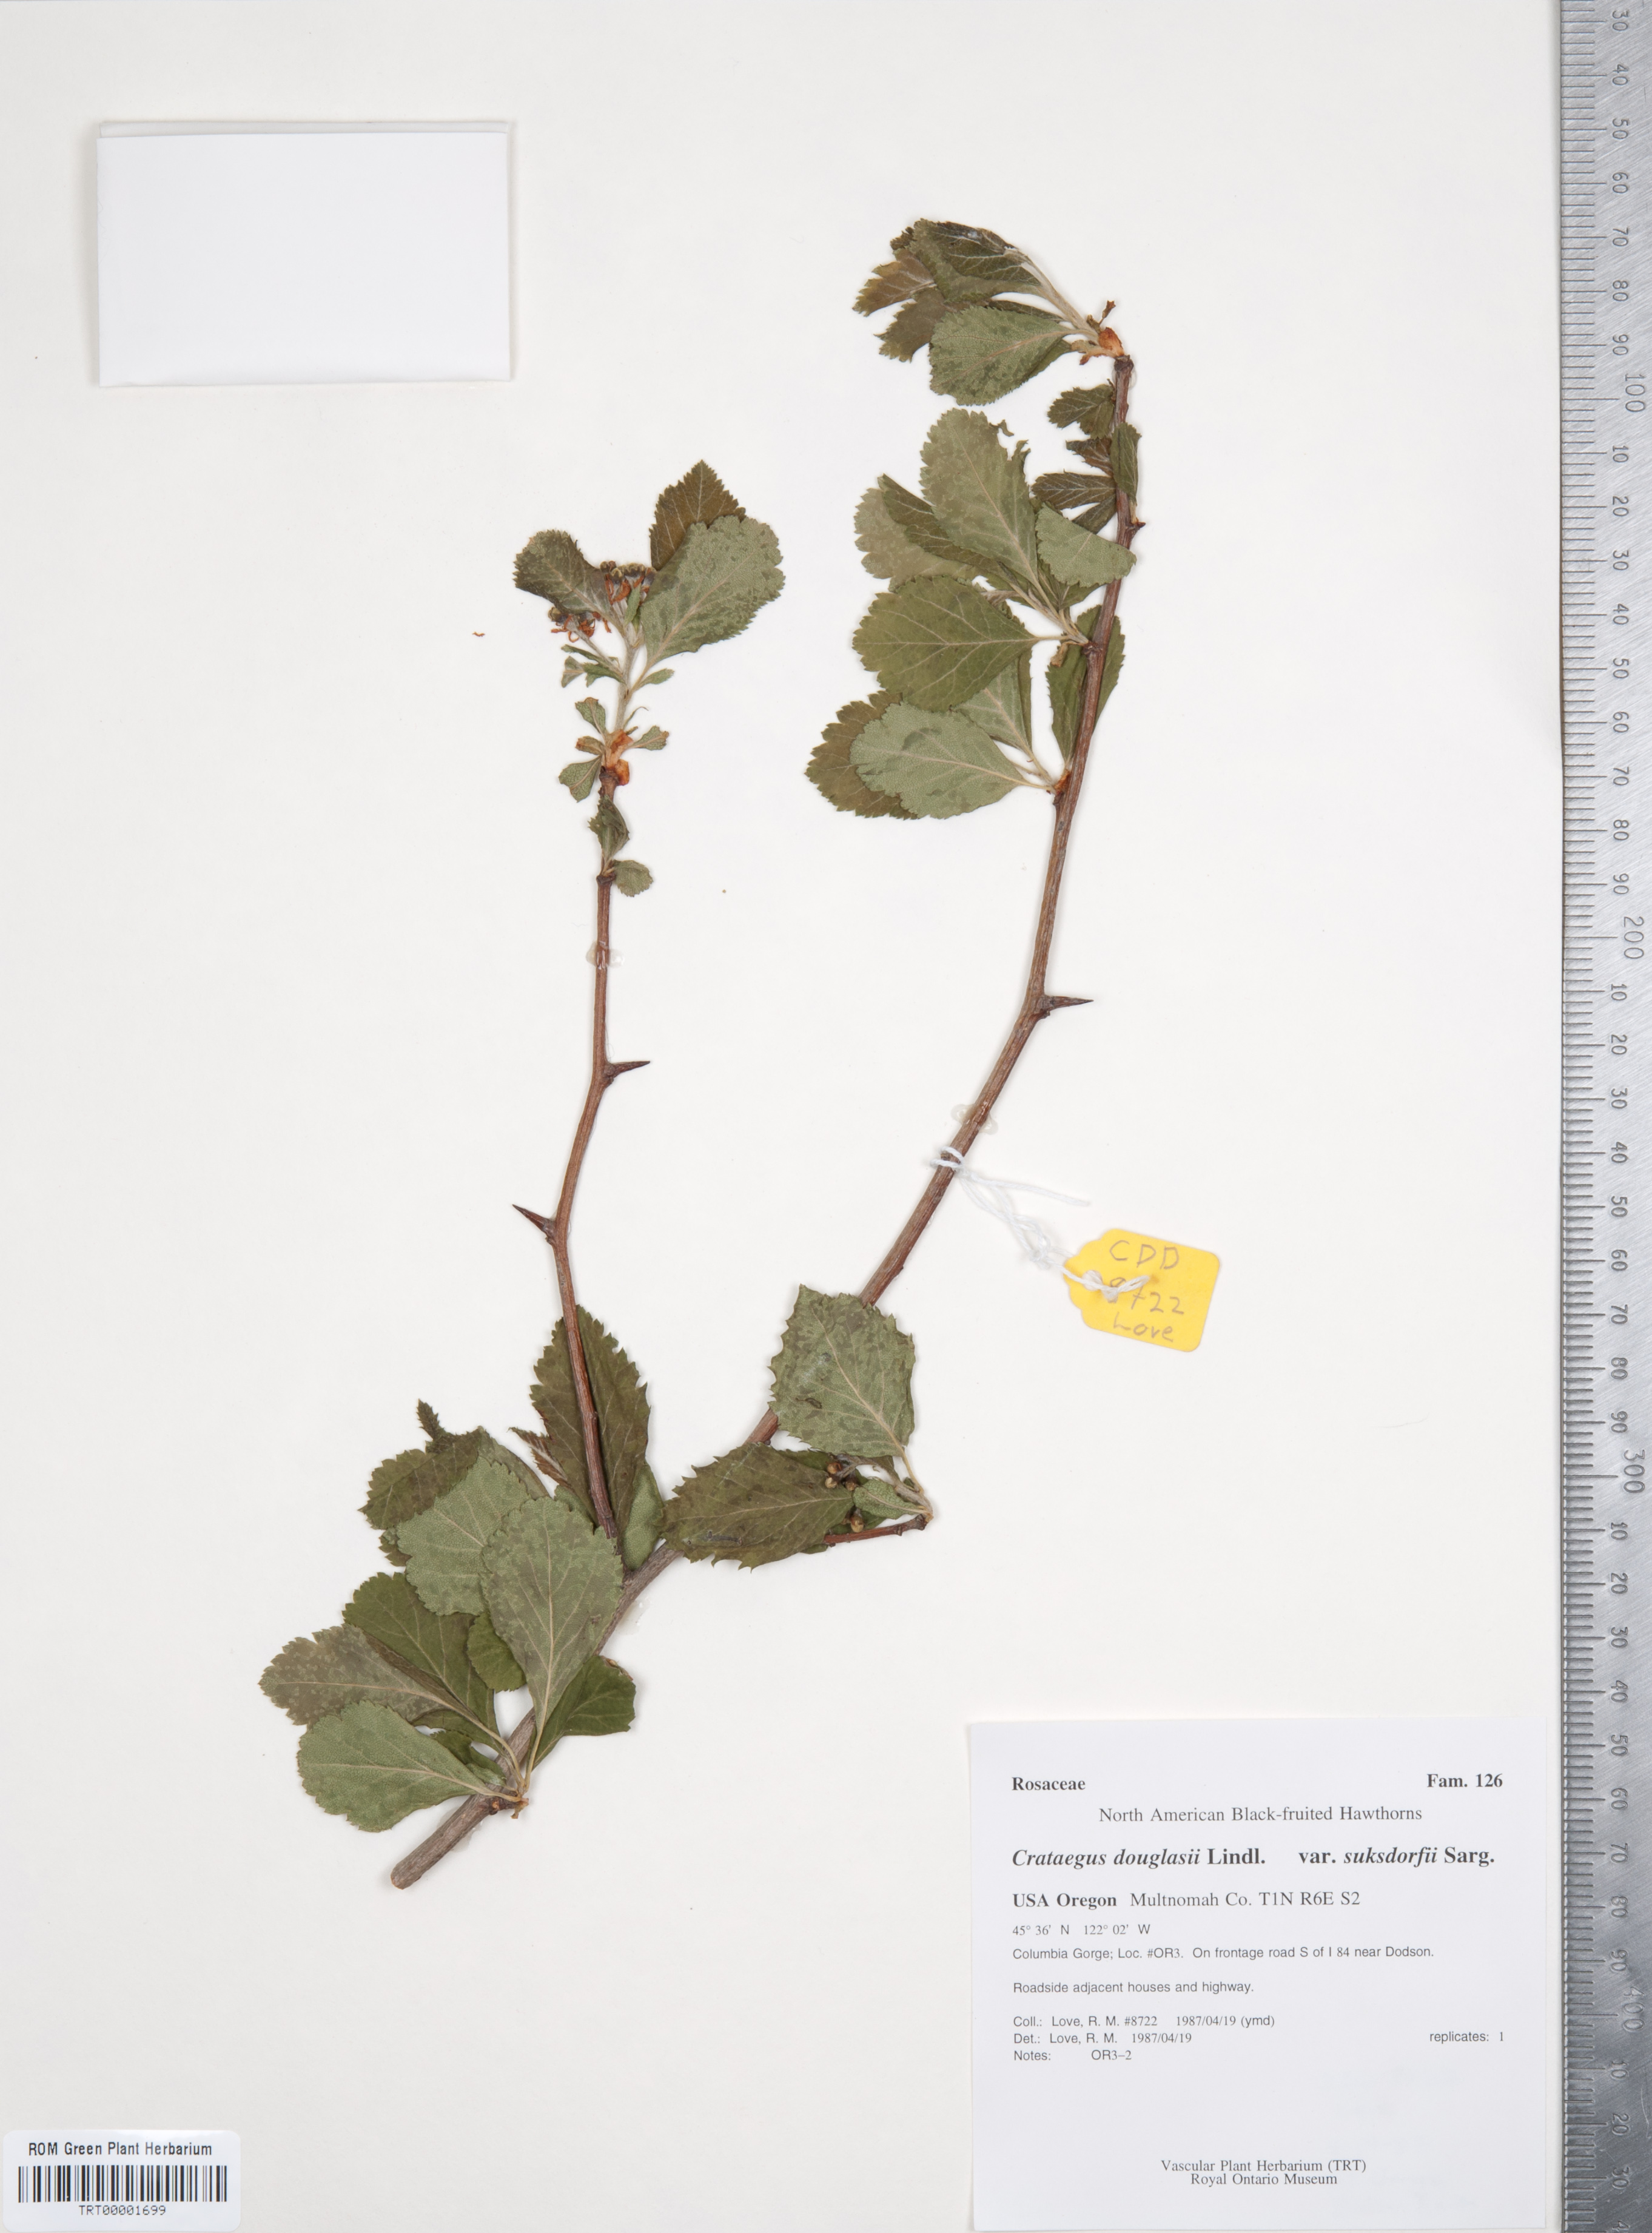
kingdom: Plantae
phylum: Tracheophyta
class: Magnoliopsida
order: Rosales
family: Rosaceae
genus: Crataegus
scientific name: Crataegus gaylussacia
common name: Huckleberry hawthorn
